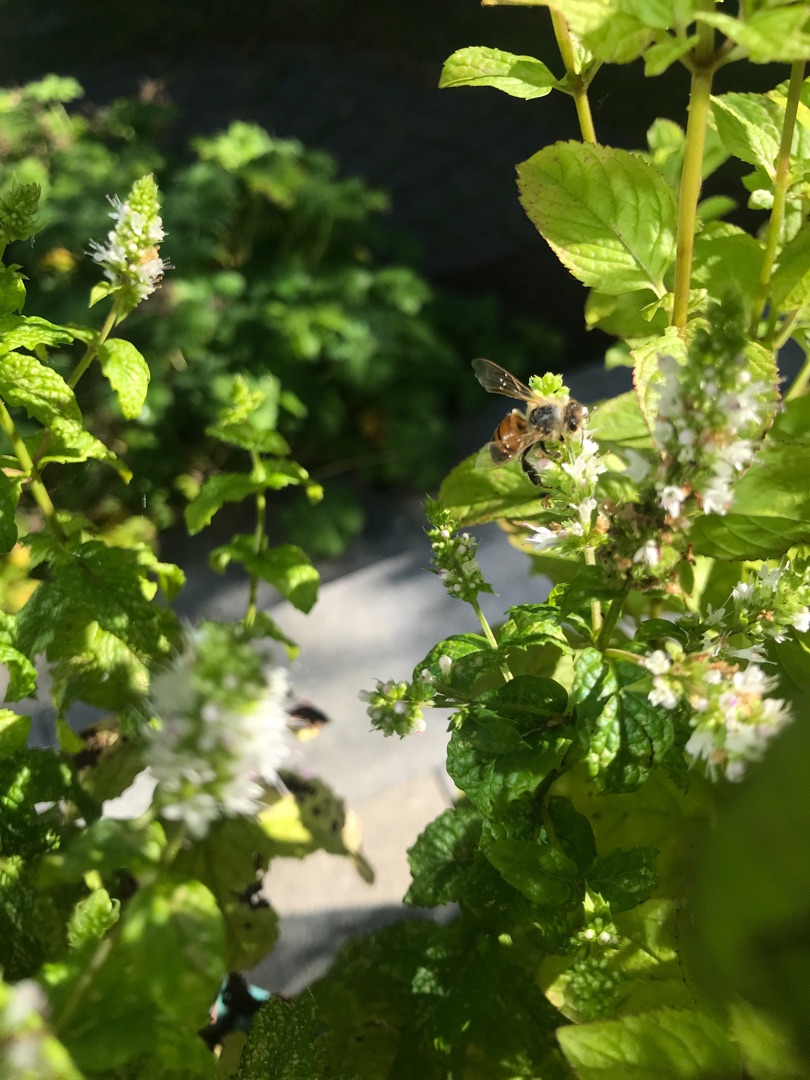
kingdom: Animalia
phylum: Arthropoda
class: Insecta
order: Hymenoptera
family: Apidae
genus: Apis
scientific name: Apis mellifera
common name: Honningbi
